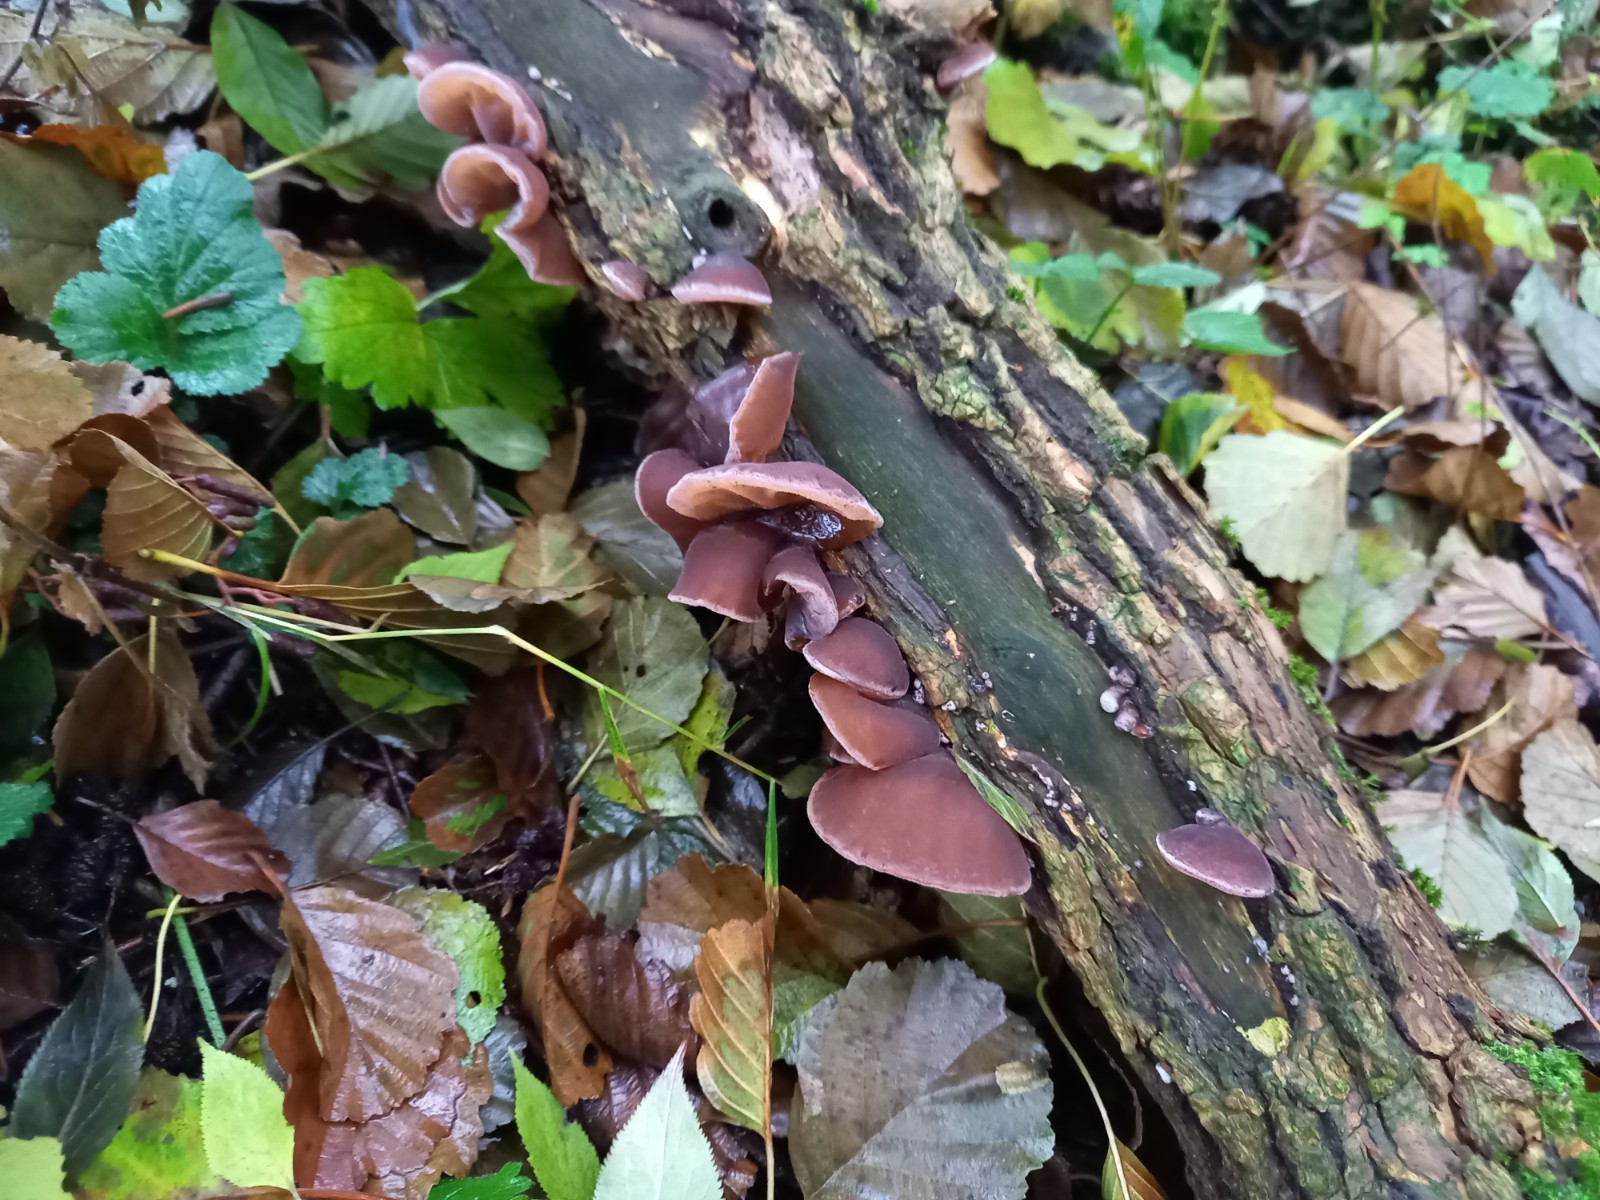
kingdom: Fungi
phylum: Basidiomycota
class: Agaricomycetes
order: Auriculariales
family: Auriculariaceae
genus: Auricularia
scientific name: Auricularia auricula-judae
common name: almindelig judasøre
